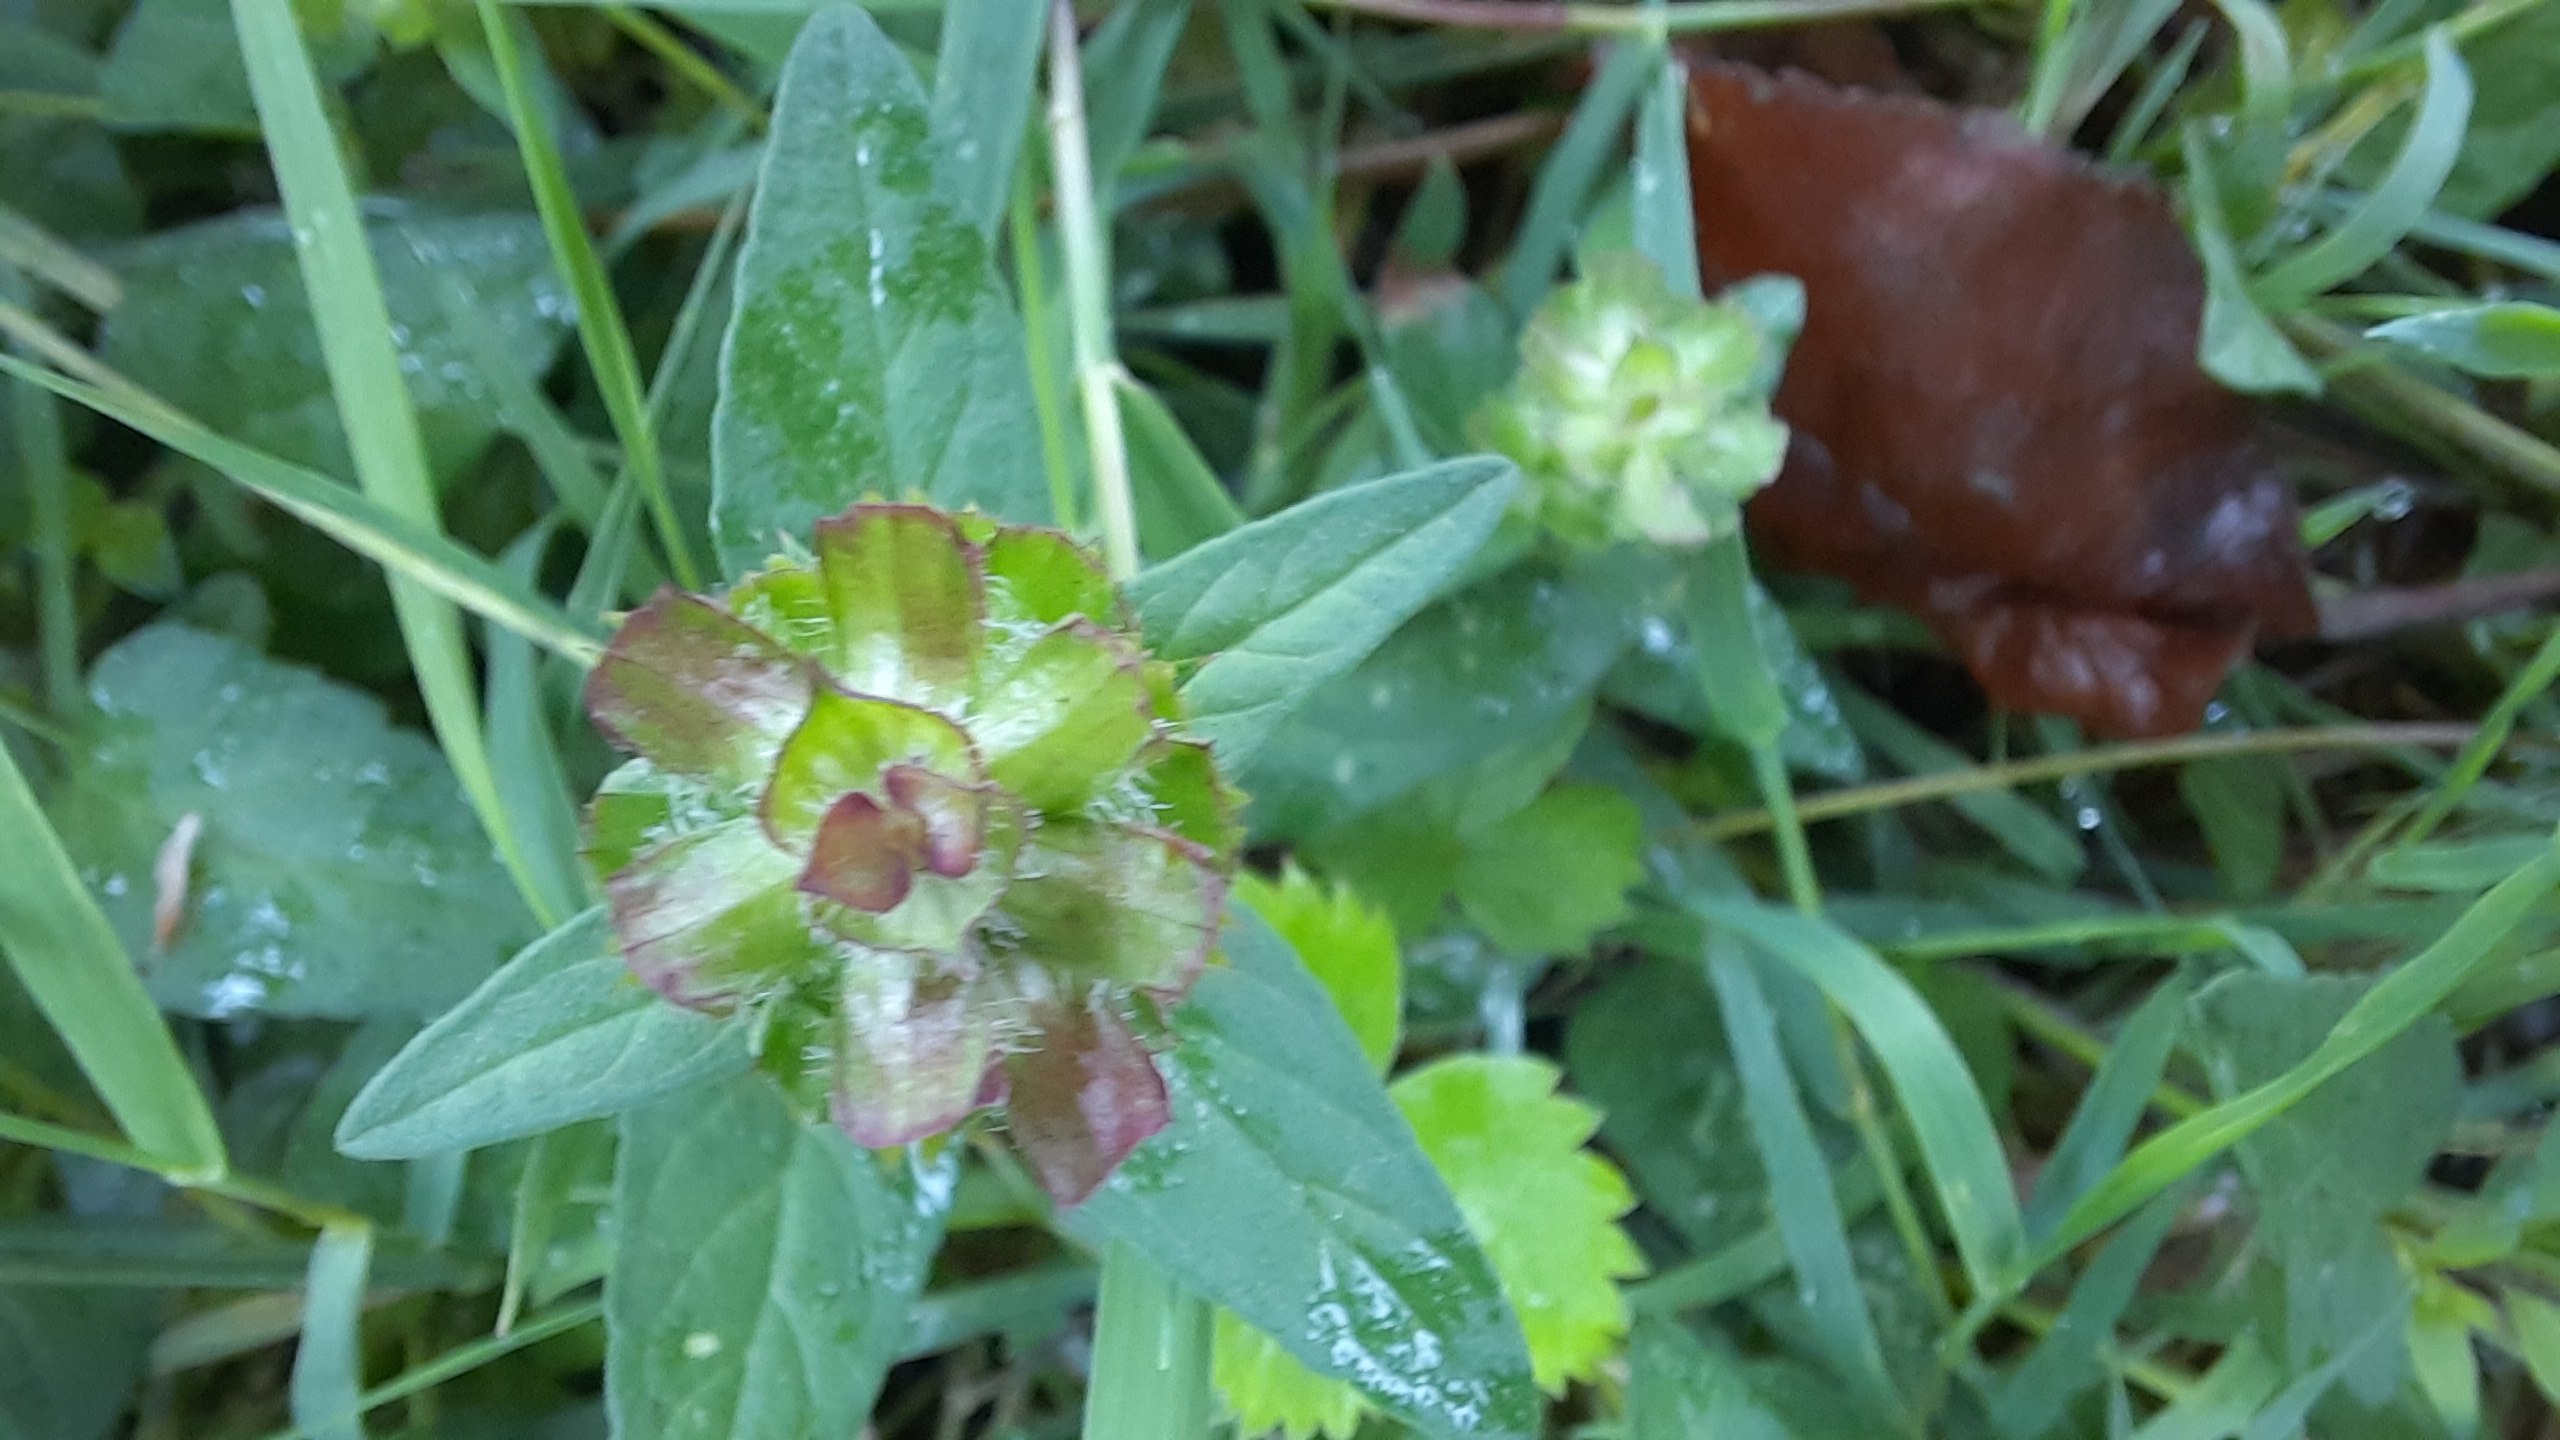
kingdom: Plantae
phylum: Tracheophyta
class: Magnoliopsida
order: Lamiales
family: Lamiaceae
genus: Prunella
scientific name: Prunella vulgaris
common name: Almindelig brunelle
